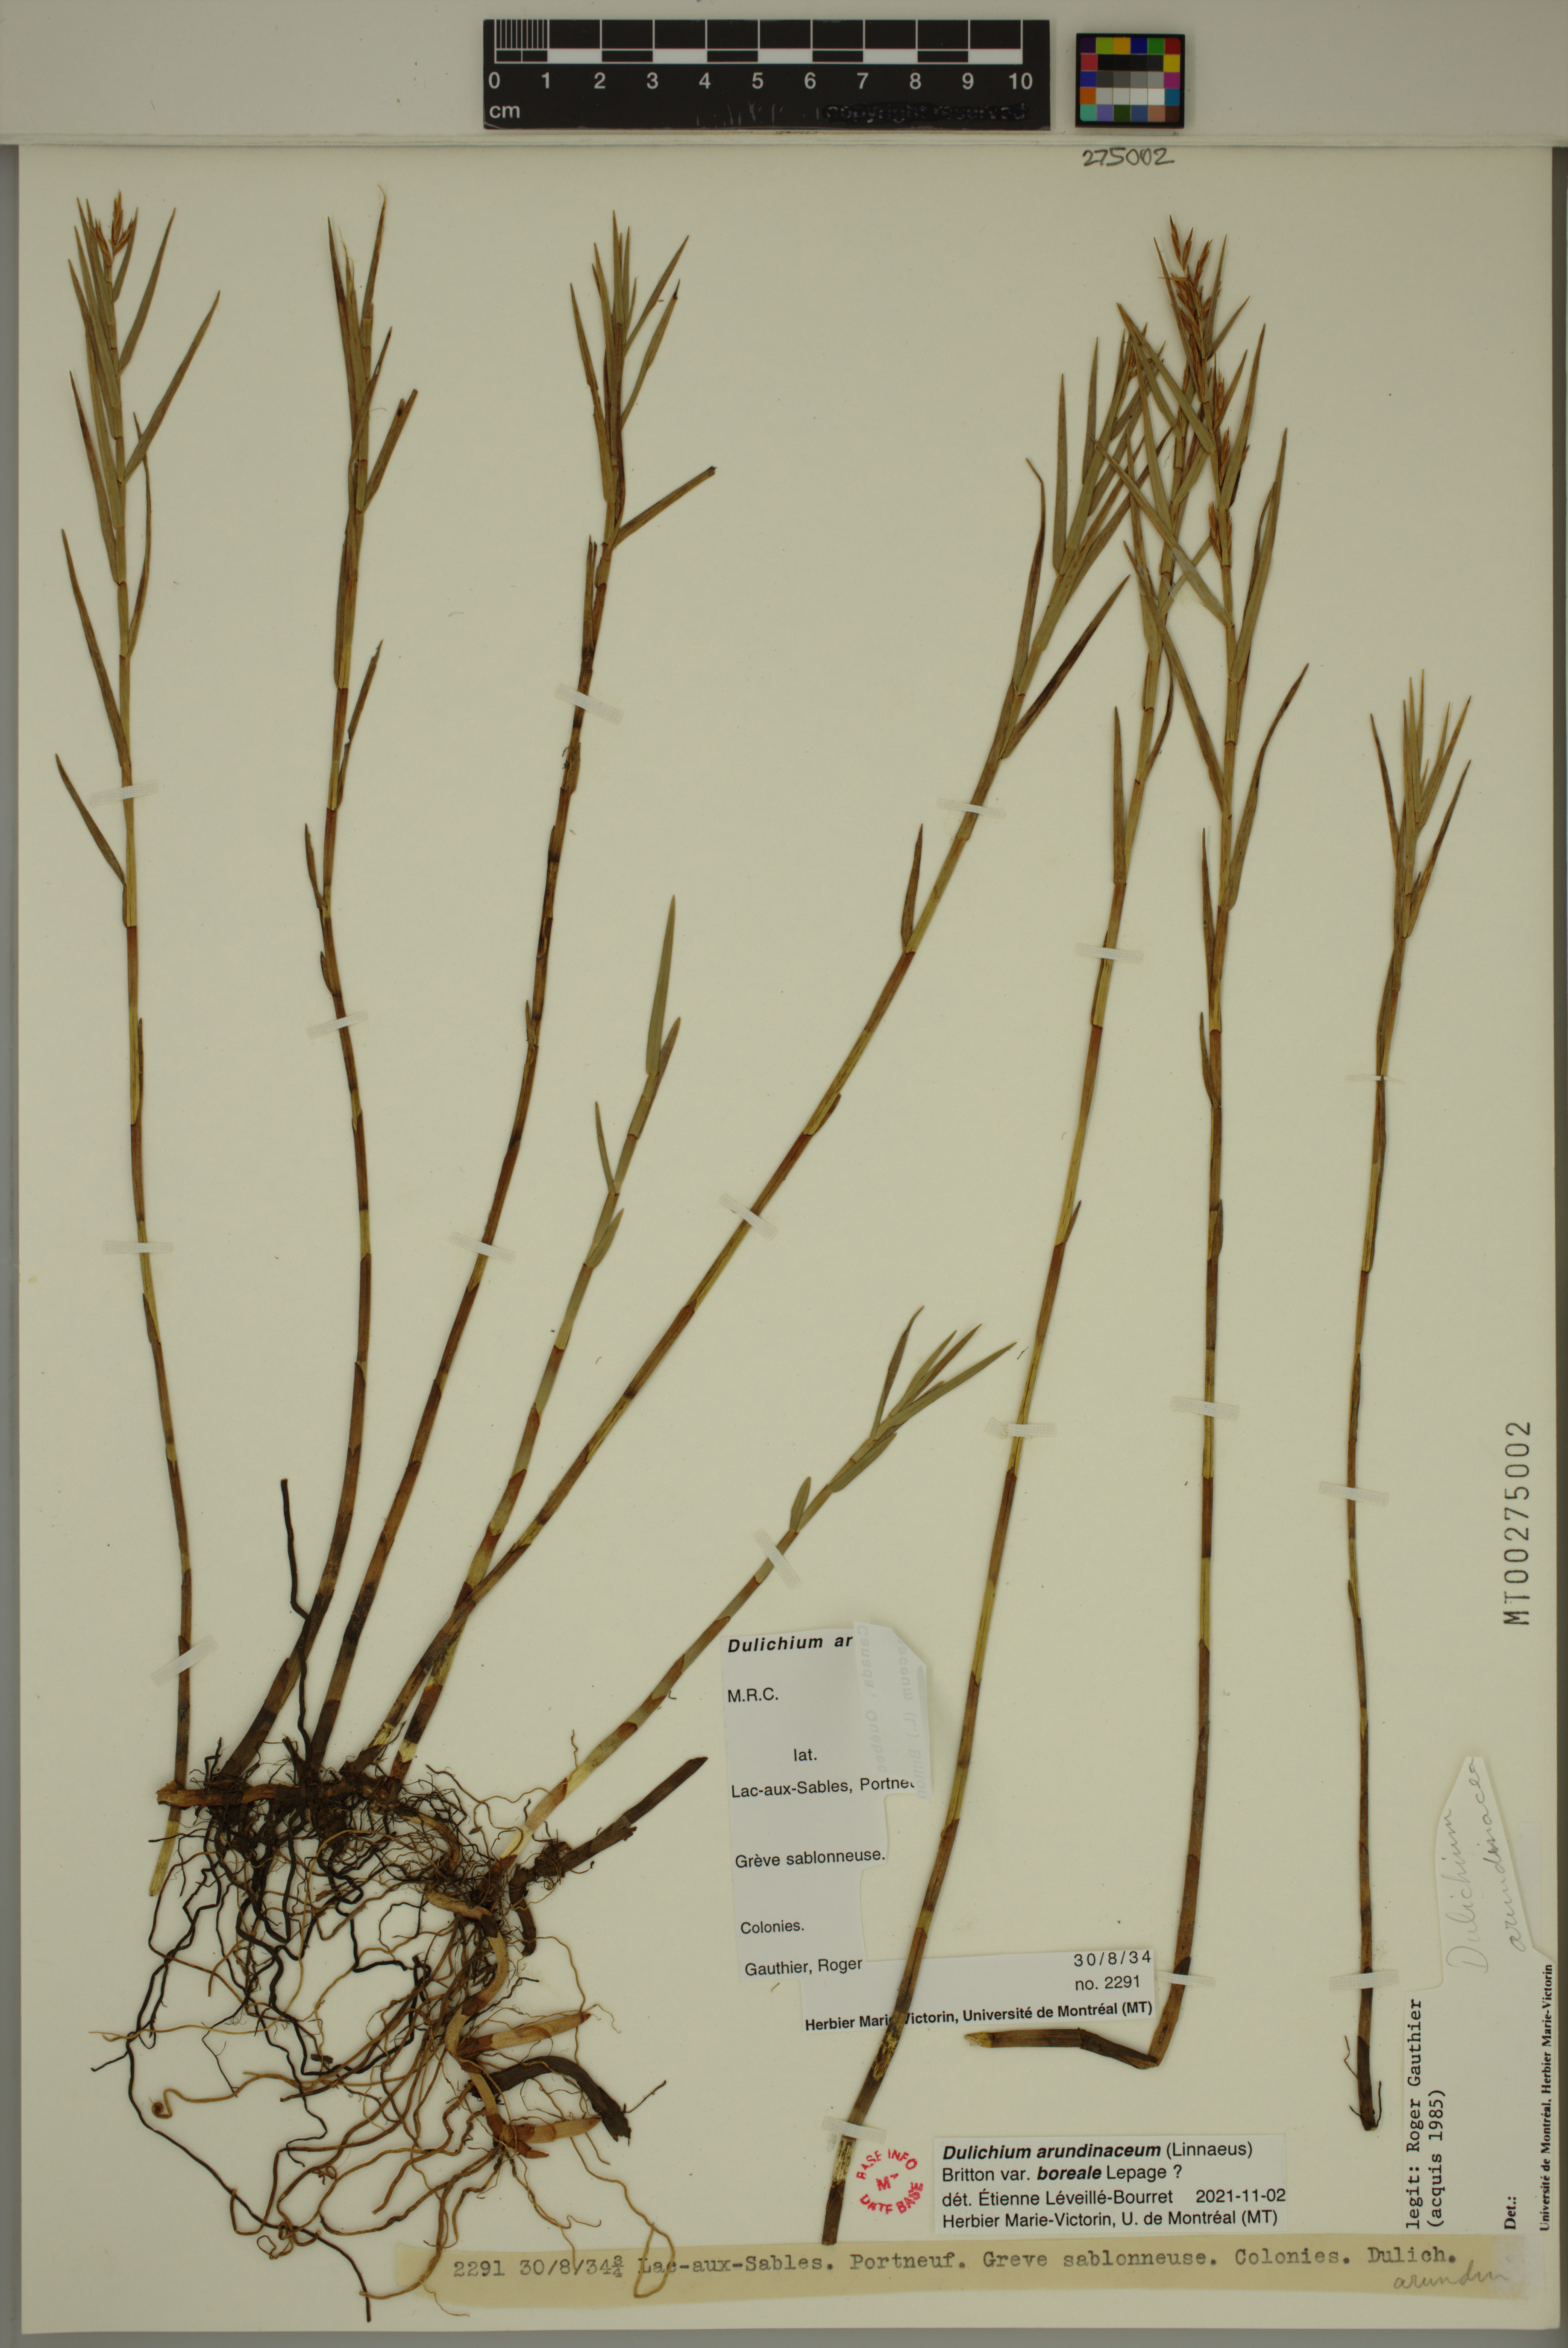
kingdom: Plantae
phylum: Tracheophyta
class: Liliopsida
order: Poales
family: Cyperaceae
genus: Dulichium
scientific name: Dulichium arundinaceum
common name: Three-way sedge
